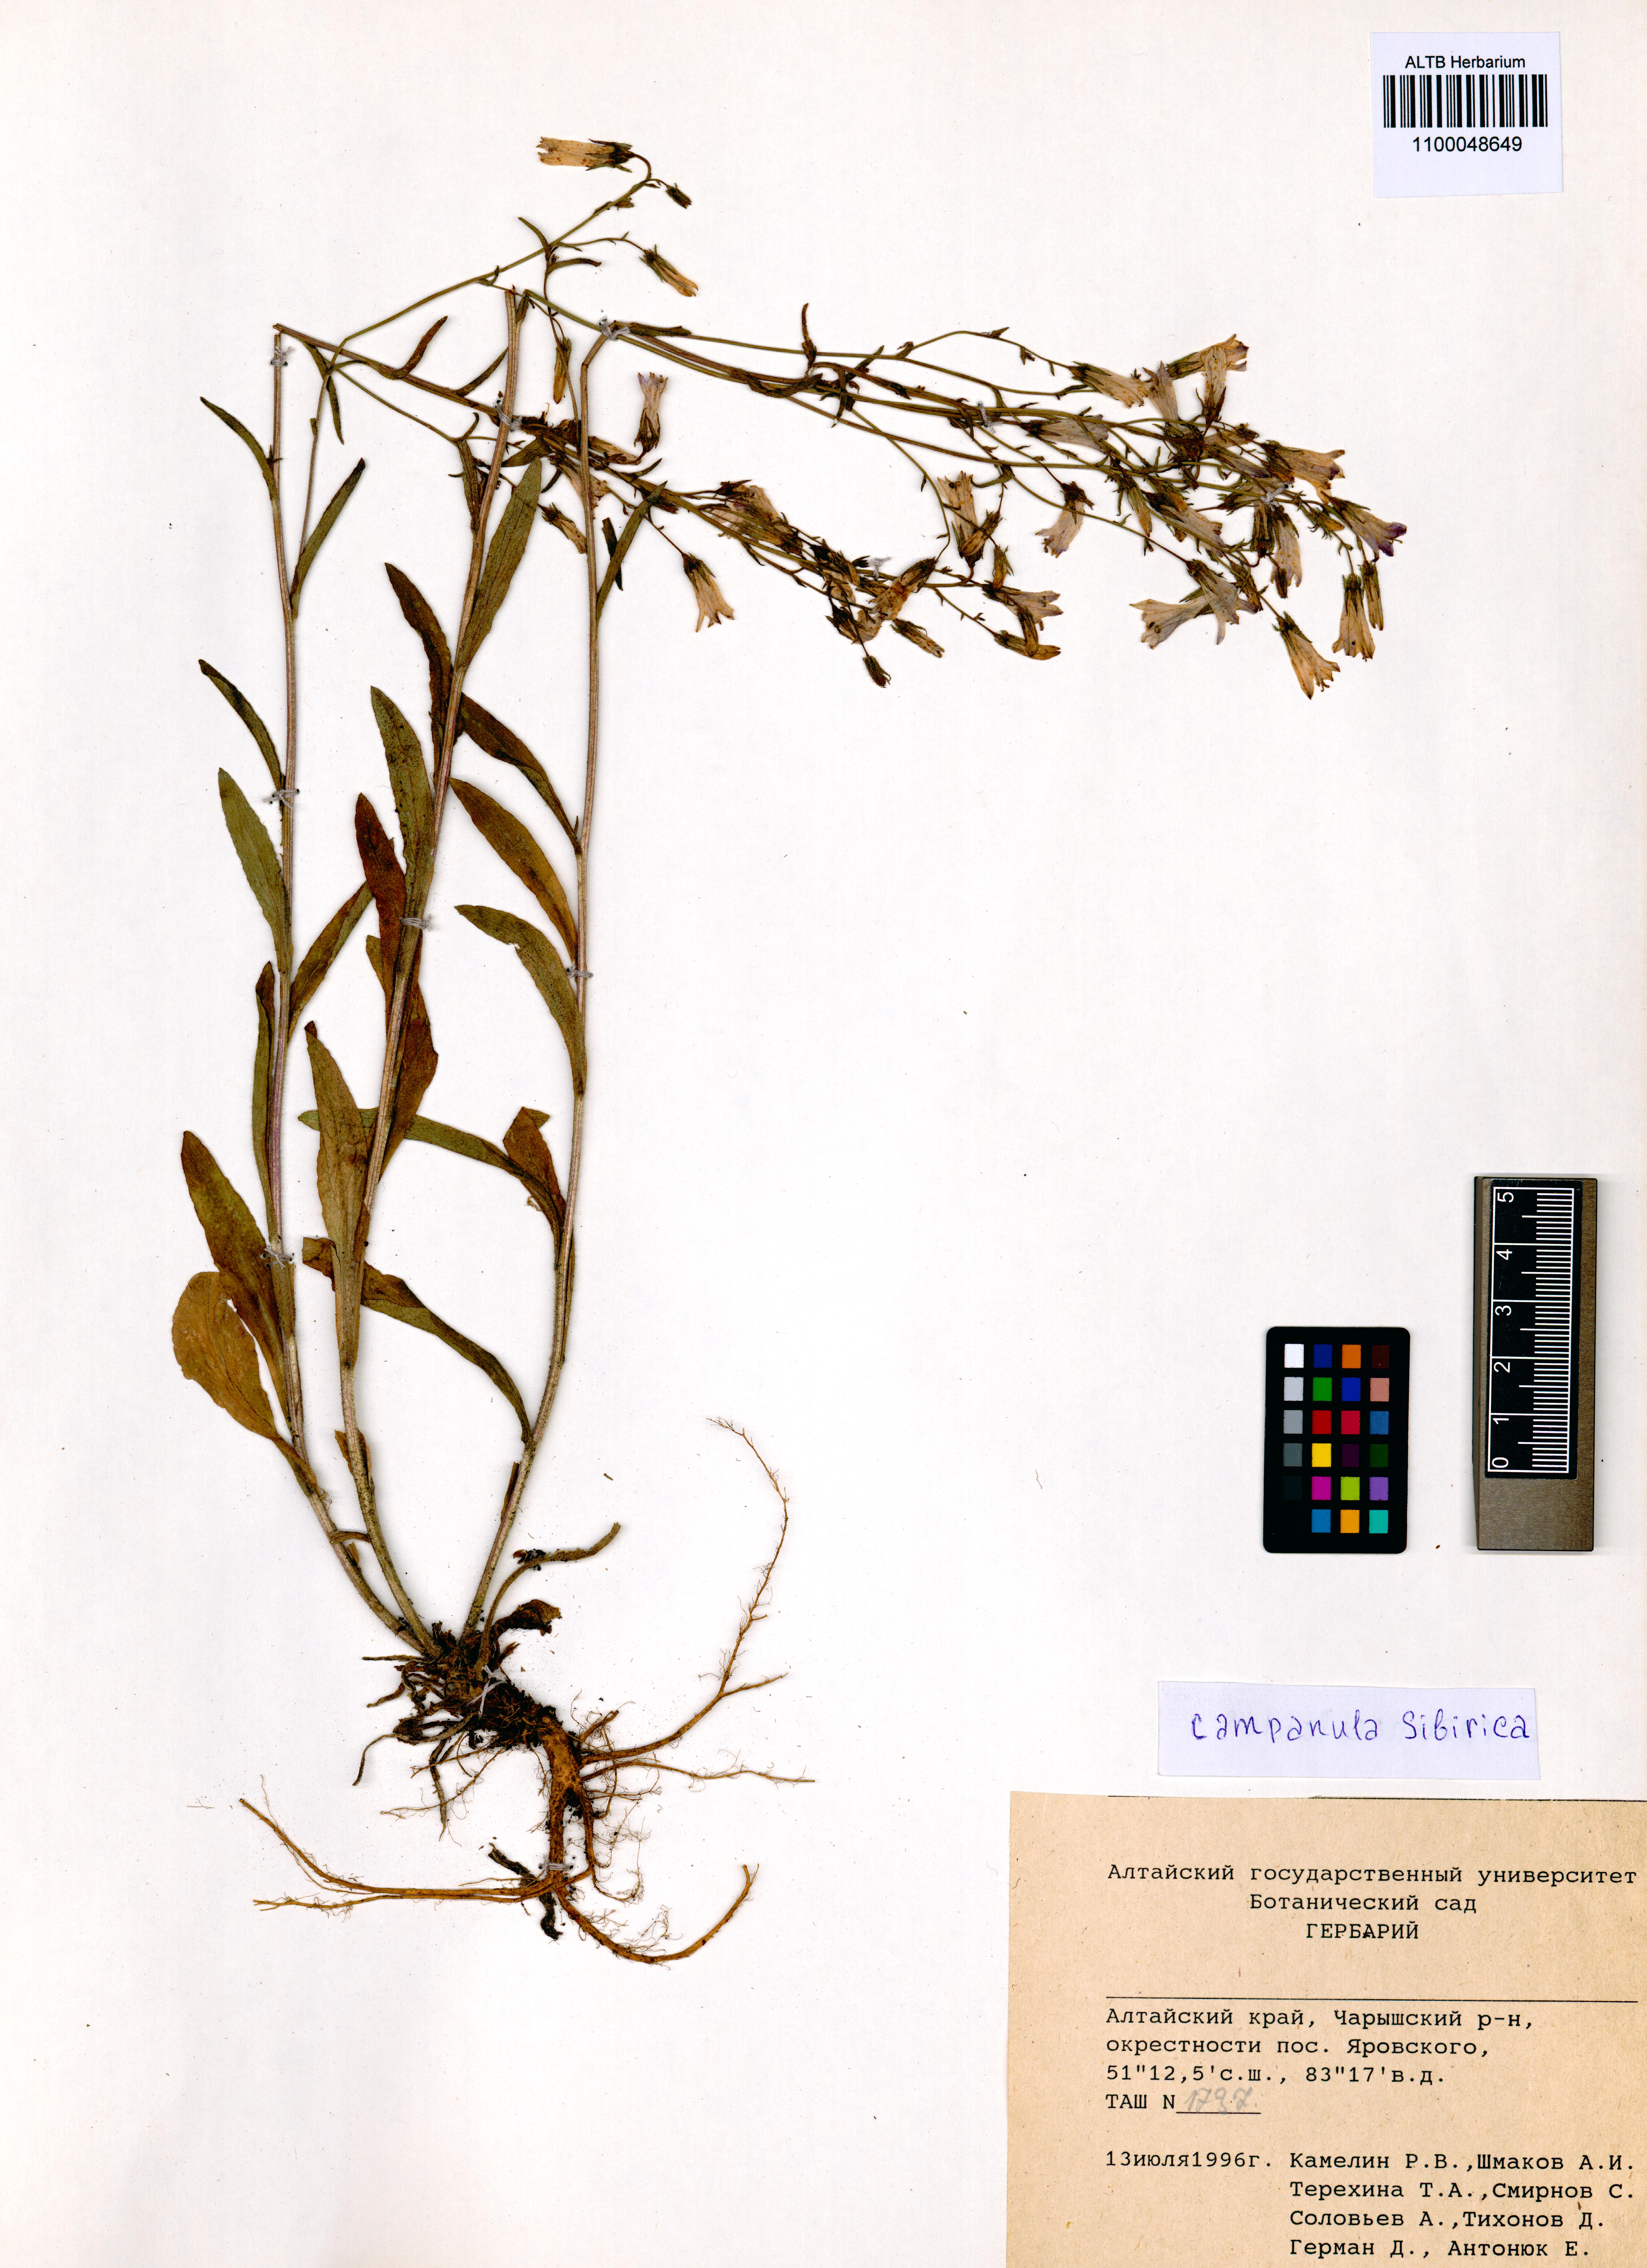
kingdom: Plantae
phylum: Tracheophyta
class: Magnoliopsida
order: Asterales
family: Campanulaceae
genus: Campanula
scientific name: Campanula sibirica
